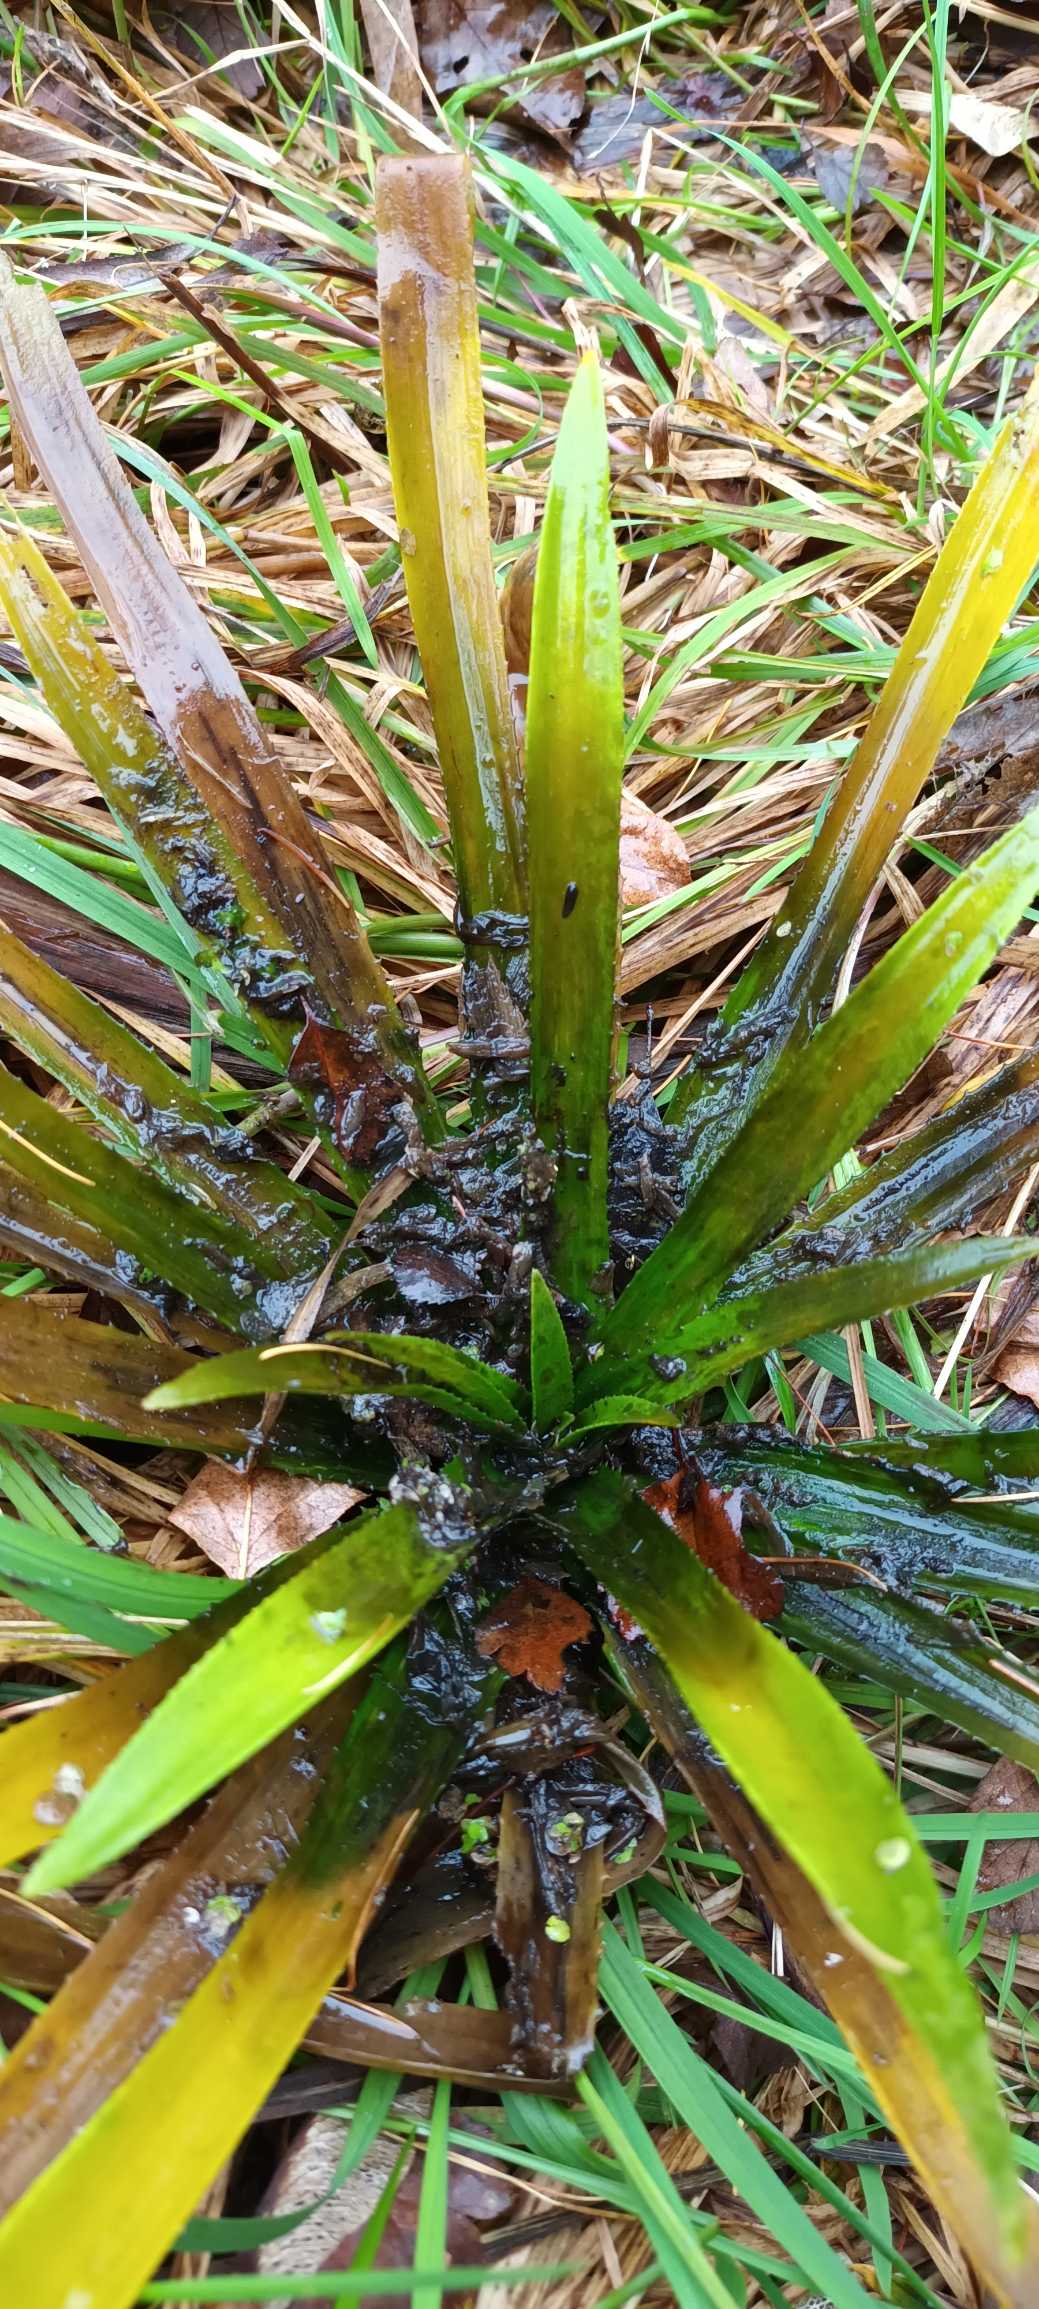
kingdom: Plantae
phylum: Tracheophyta
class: Liliopsida
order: Alismatales
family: Hydrocharitaceae
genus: Stratiotes
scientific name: Stratiotes aloides
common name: Krebseklo
